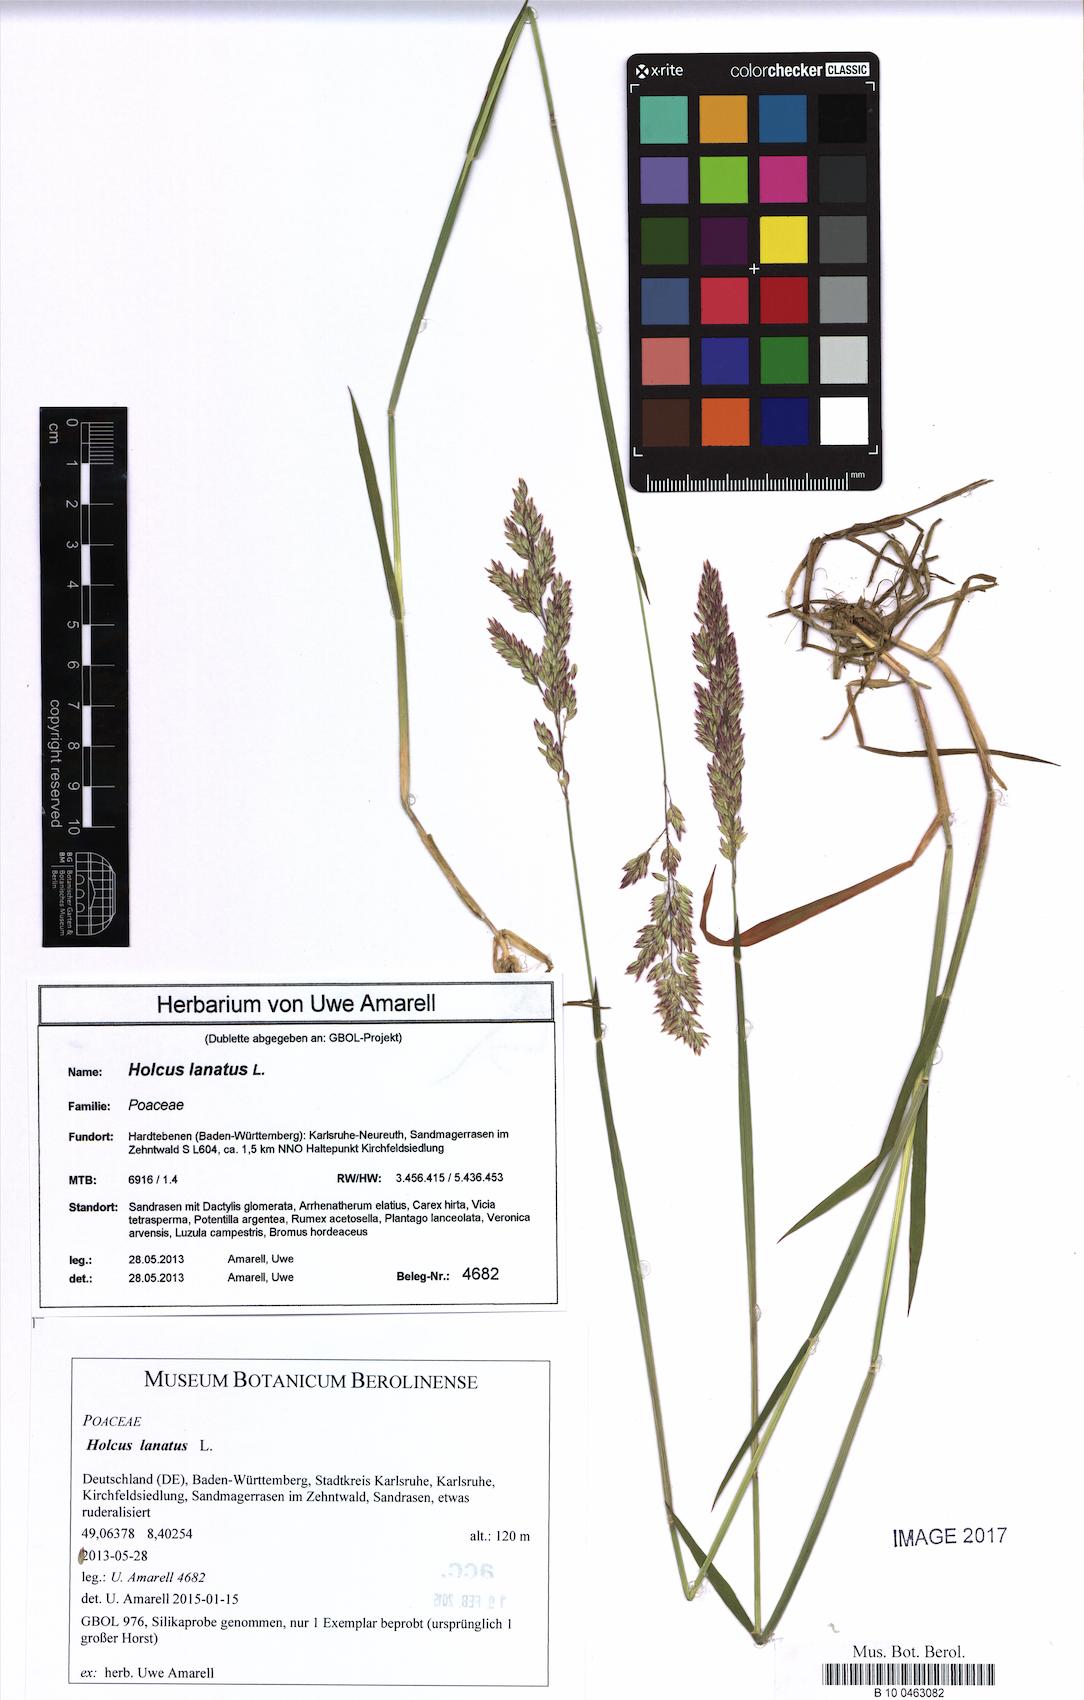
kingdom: Plantae
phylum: Tracheophyta
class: Liliopsida
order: Poales
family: Poaceae
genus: Holcus
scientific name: Holcus lanatus
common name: Yorkshire-fog
